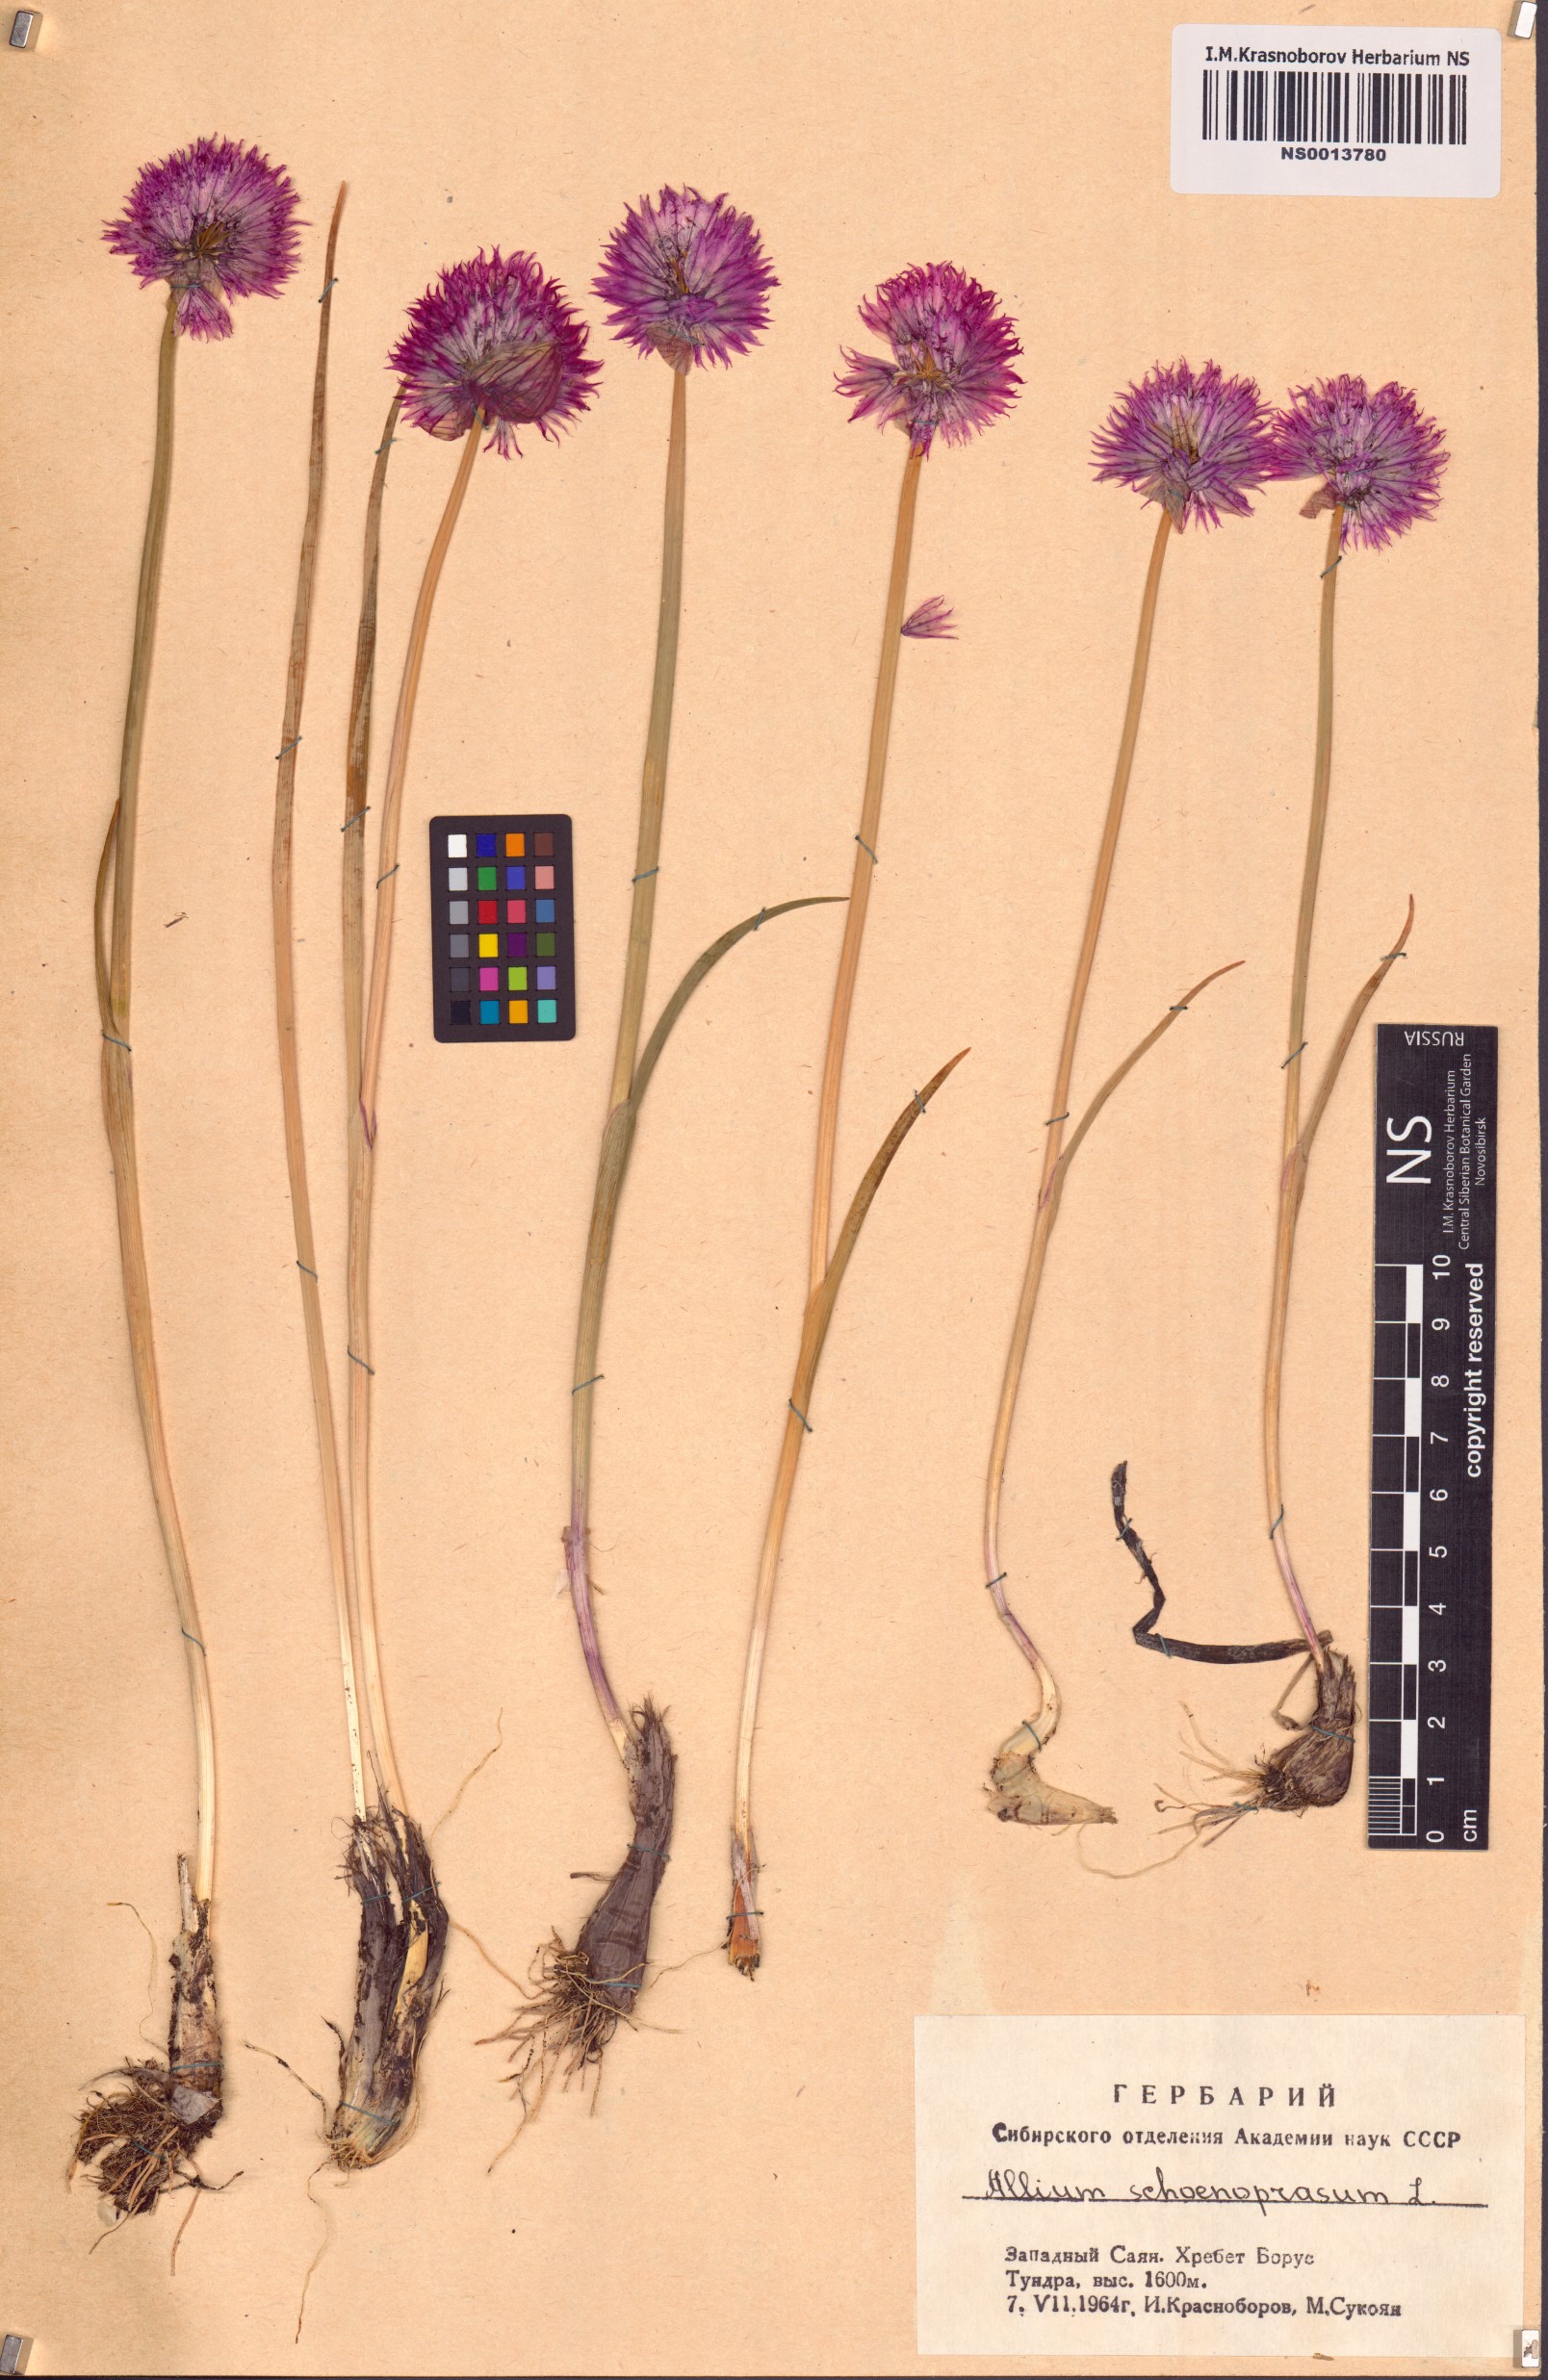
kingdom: Plantae
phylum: Tracheophyta
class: Liliopsida
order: Asparagales
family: Amaryllidaceae
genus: Allium
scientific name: Allium schoenoprasum
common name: Chives
